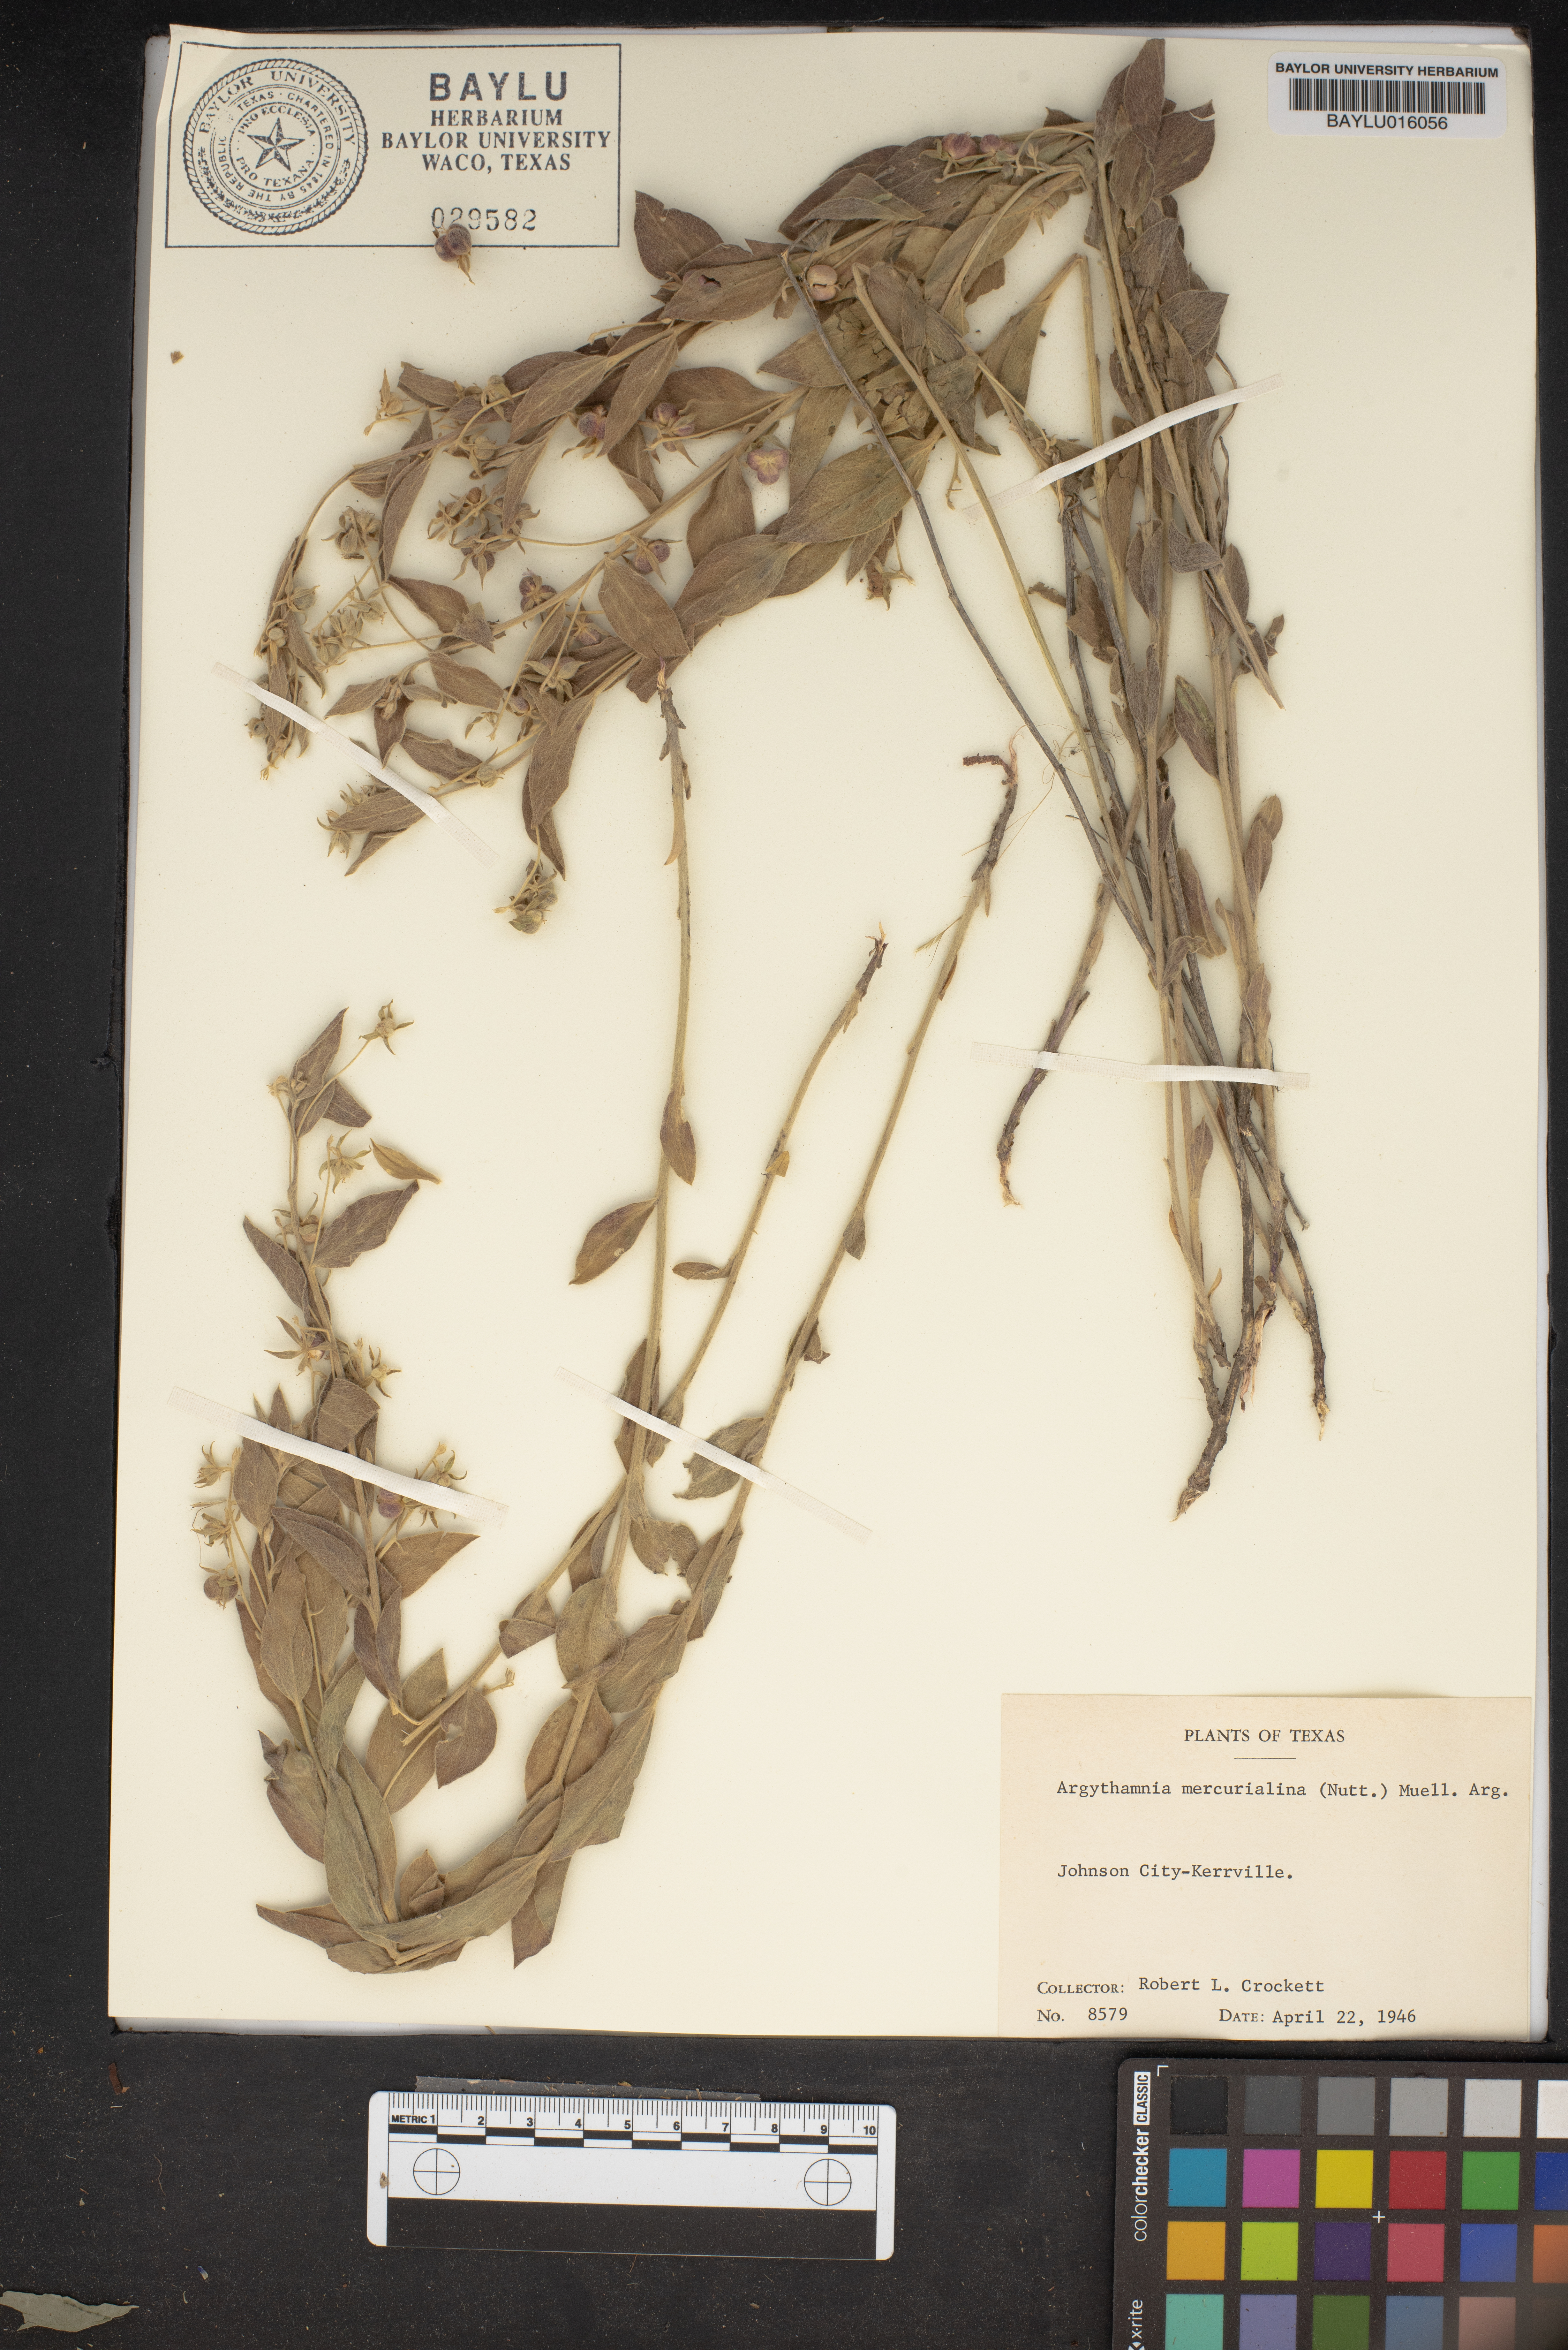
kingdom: Plantae
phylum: Tracheophyta
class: Magnoliopsida
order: Malpighiales
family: Euphorbiaceae
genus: Ditaxis
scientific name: Ditaxis mercurialina
